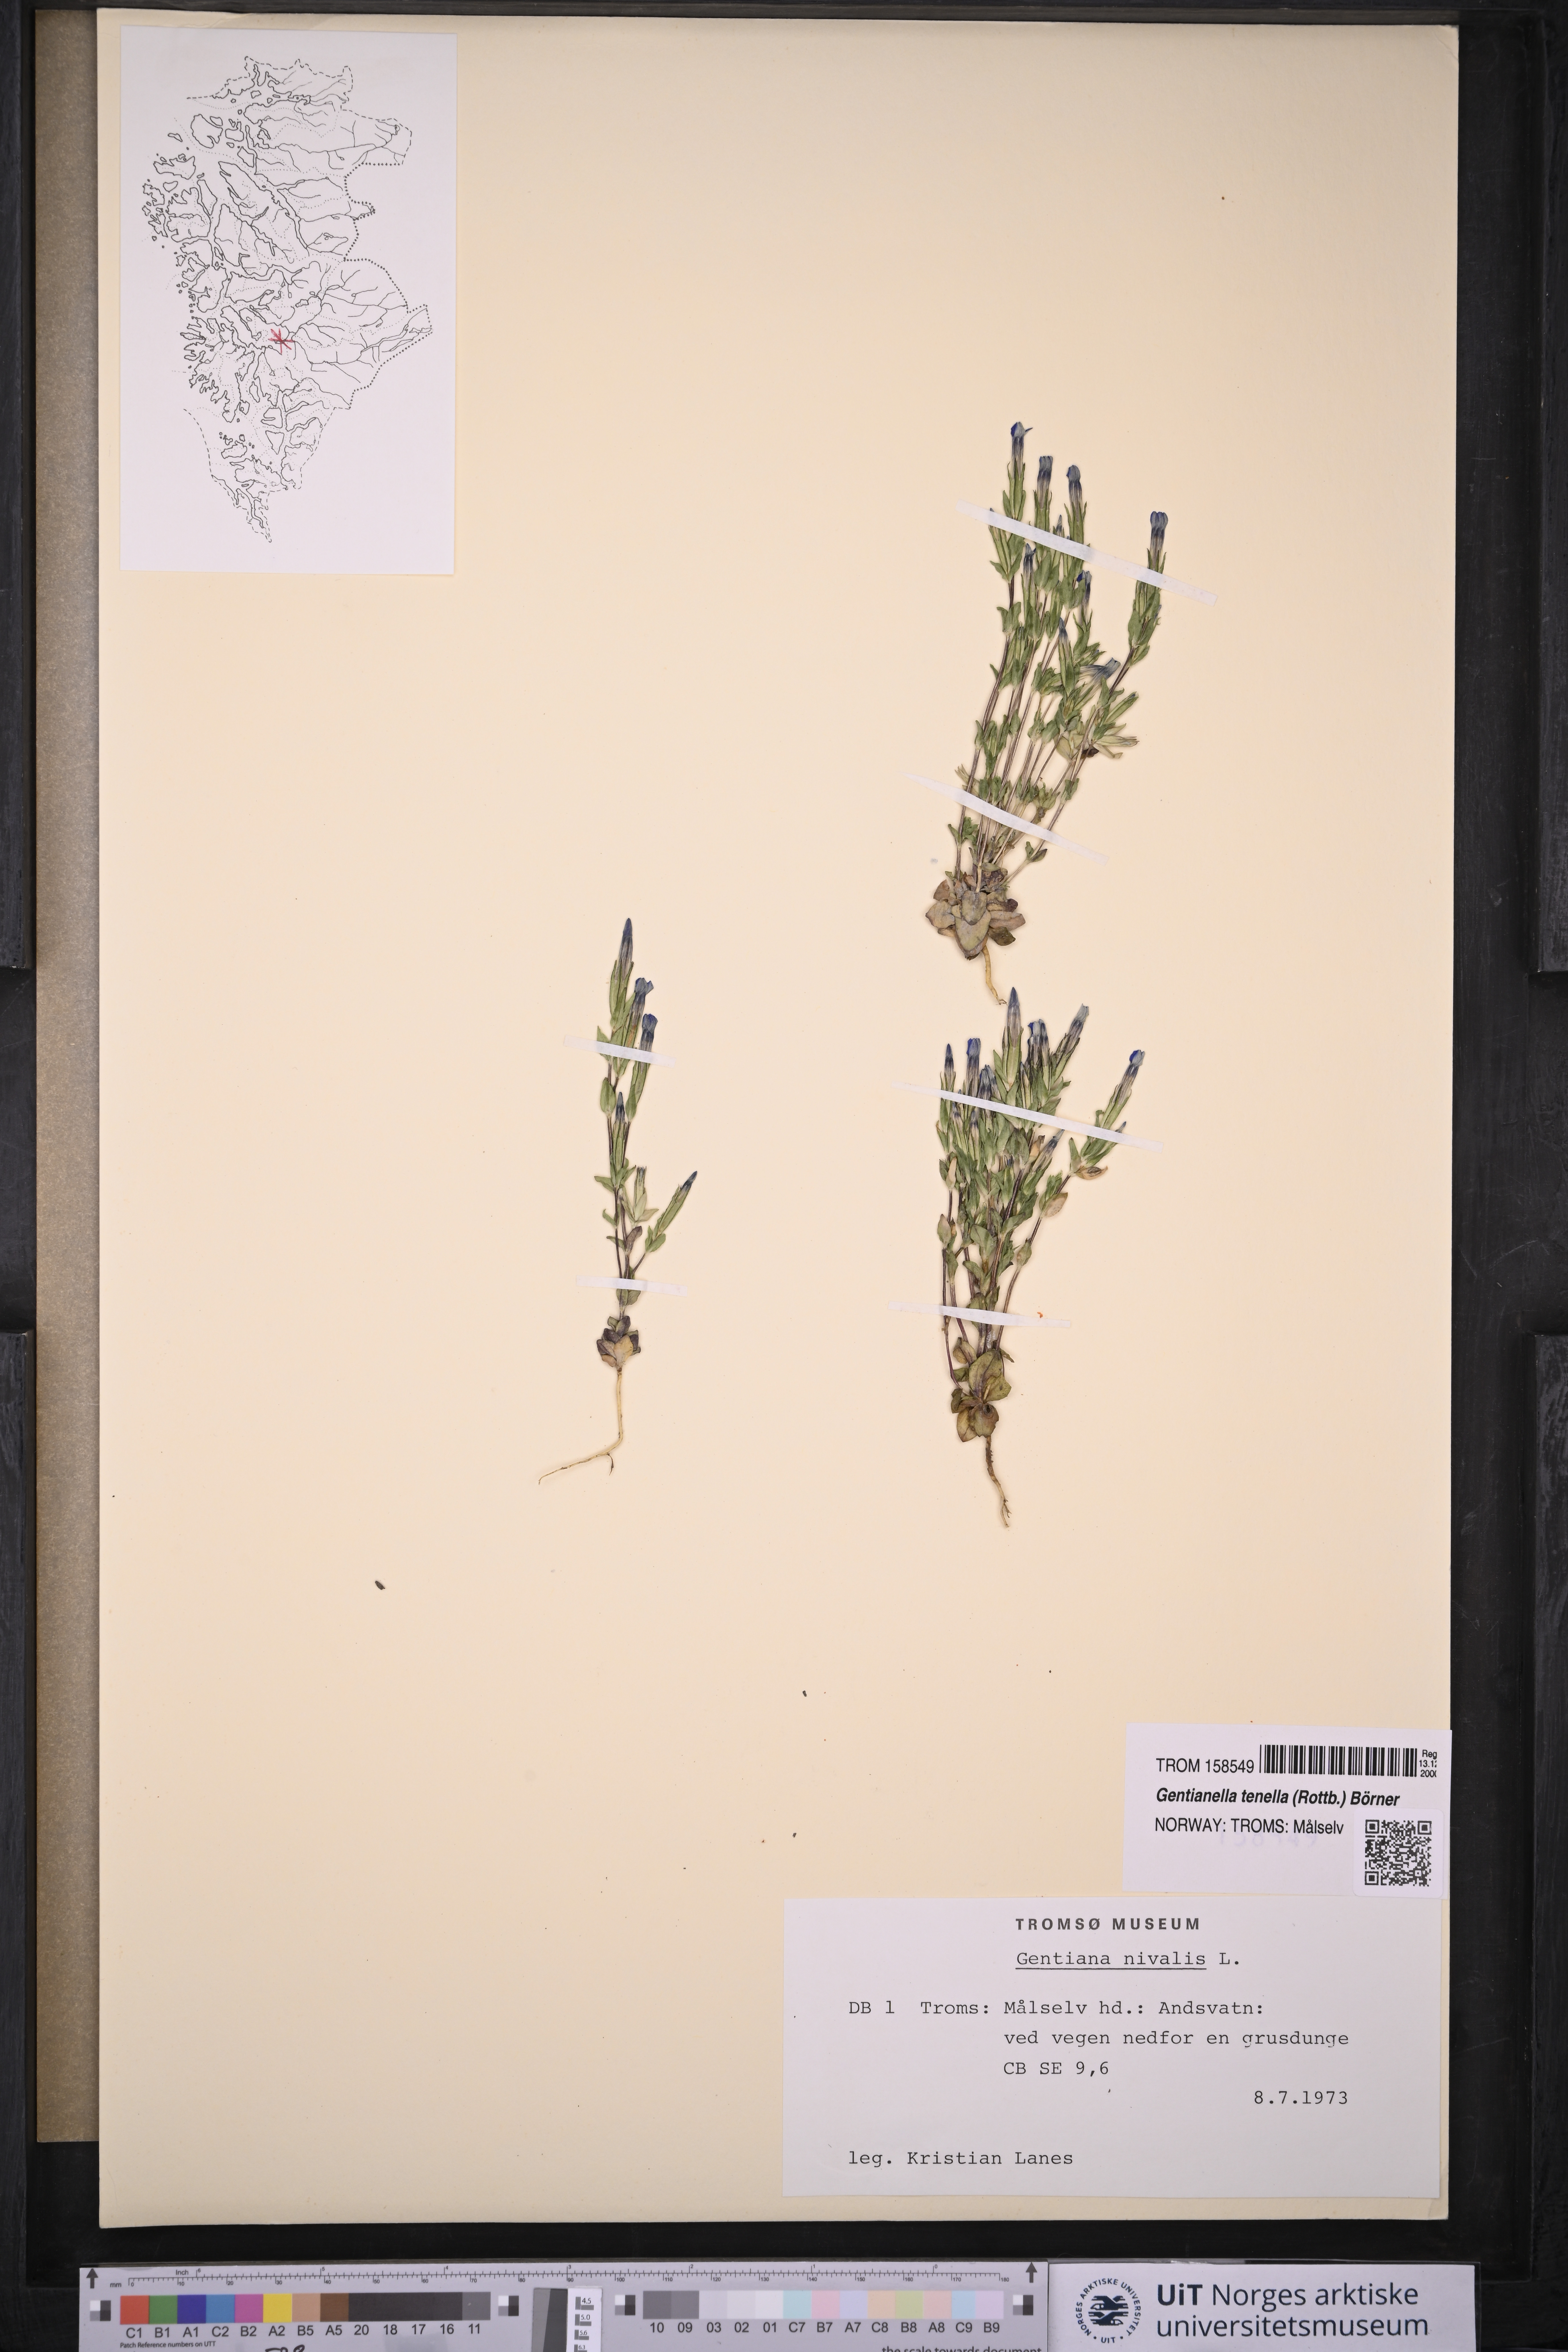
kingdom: Plantae
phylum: Tracheophyta
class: Magnoliopsida
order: Gentianales
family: Gentianaceae
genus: Comastoma
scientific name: Comastoma tenellum
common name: Dane's dwarf gentian
